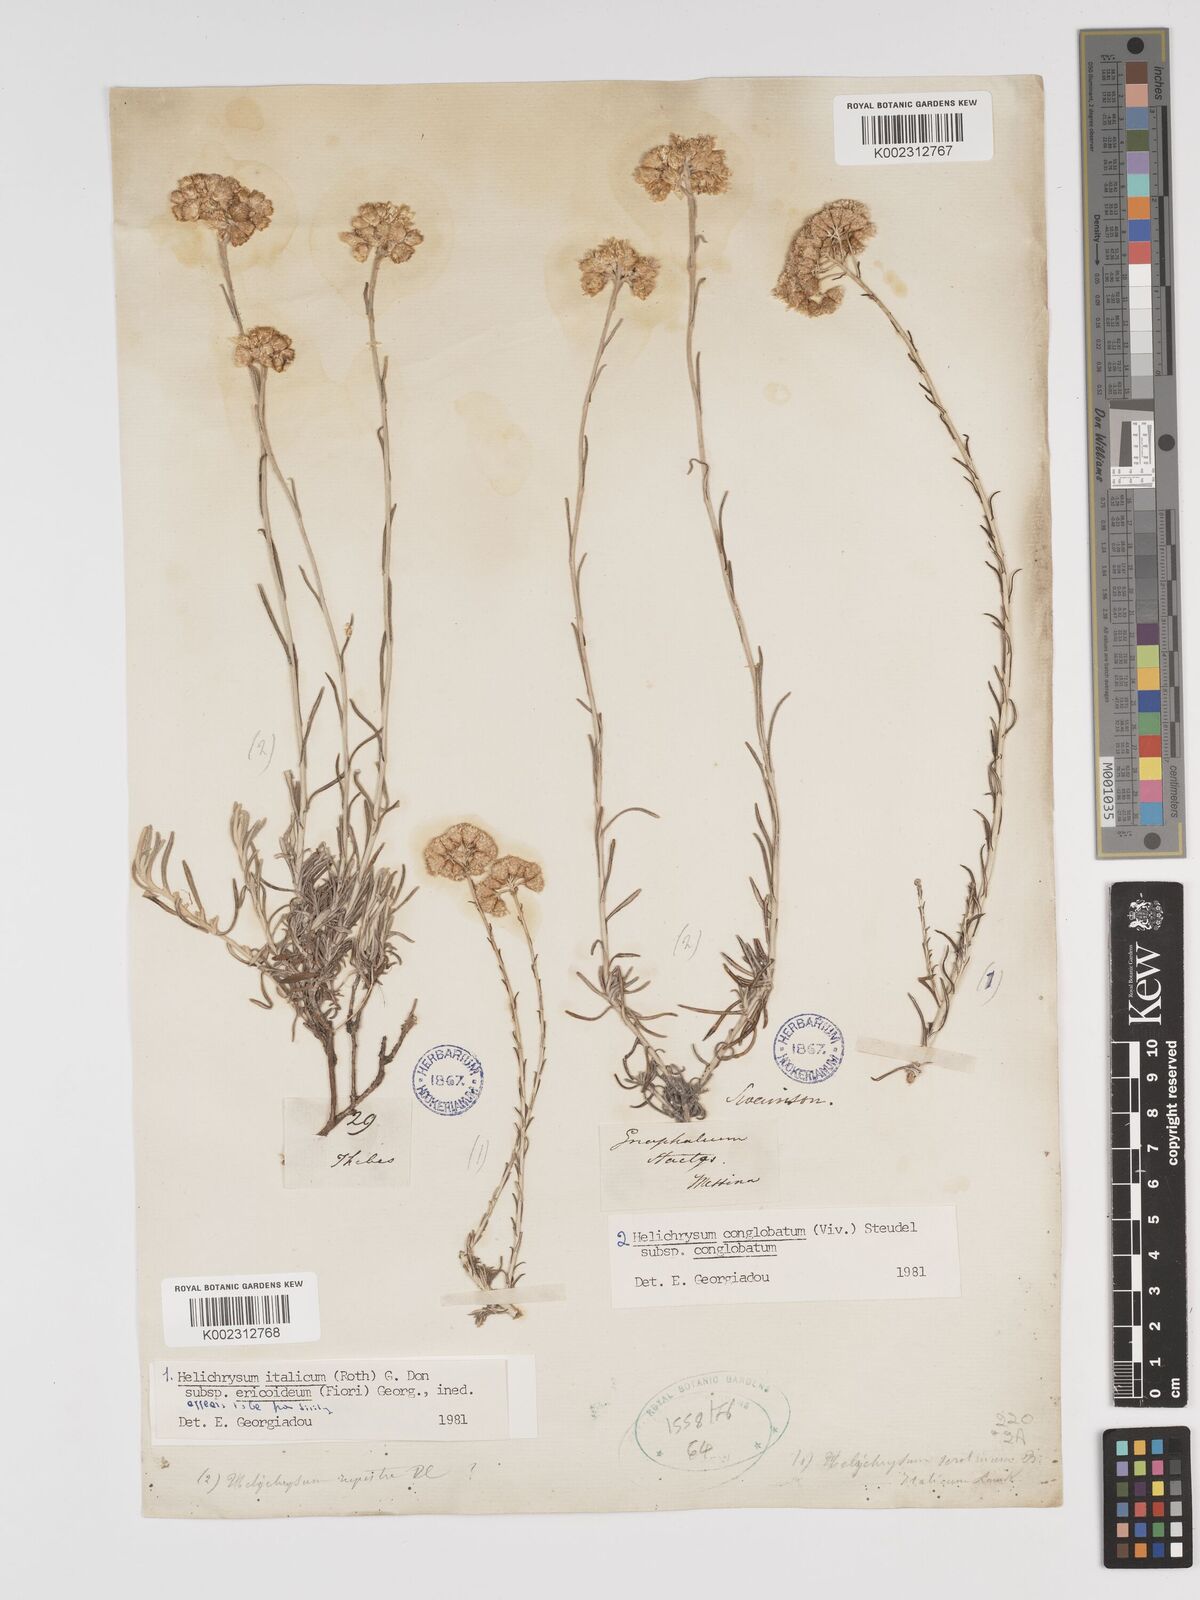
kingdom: Plantae
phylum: Tracheophyta
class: Magnoliopsida
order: Asterales
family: Asteraceae
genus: Helichrysum
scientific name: Helichrysum stoechas
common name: Goldilocks
